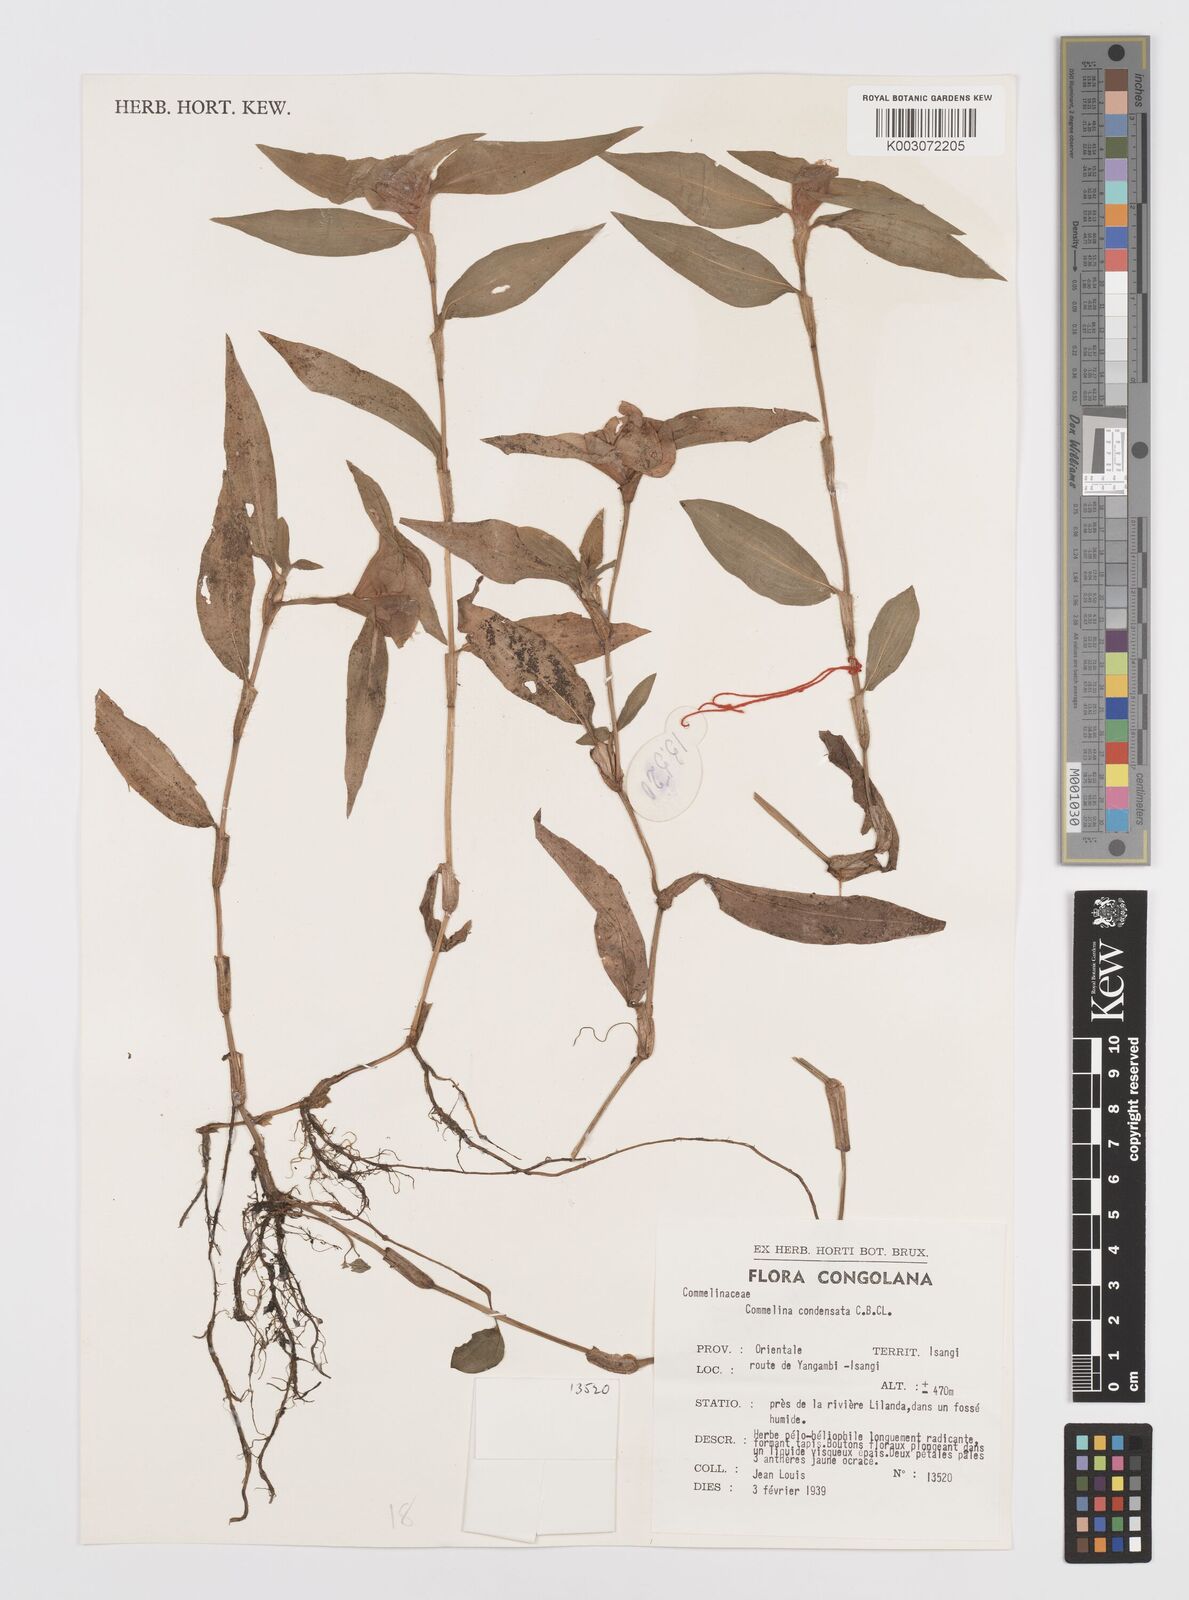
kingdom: Plantae
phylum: Tracheophyta
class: Liliopsida
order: Commelinales
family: Commelinaceae
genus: Commelina
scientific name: Commelina congesta
